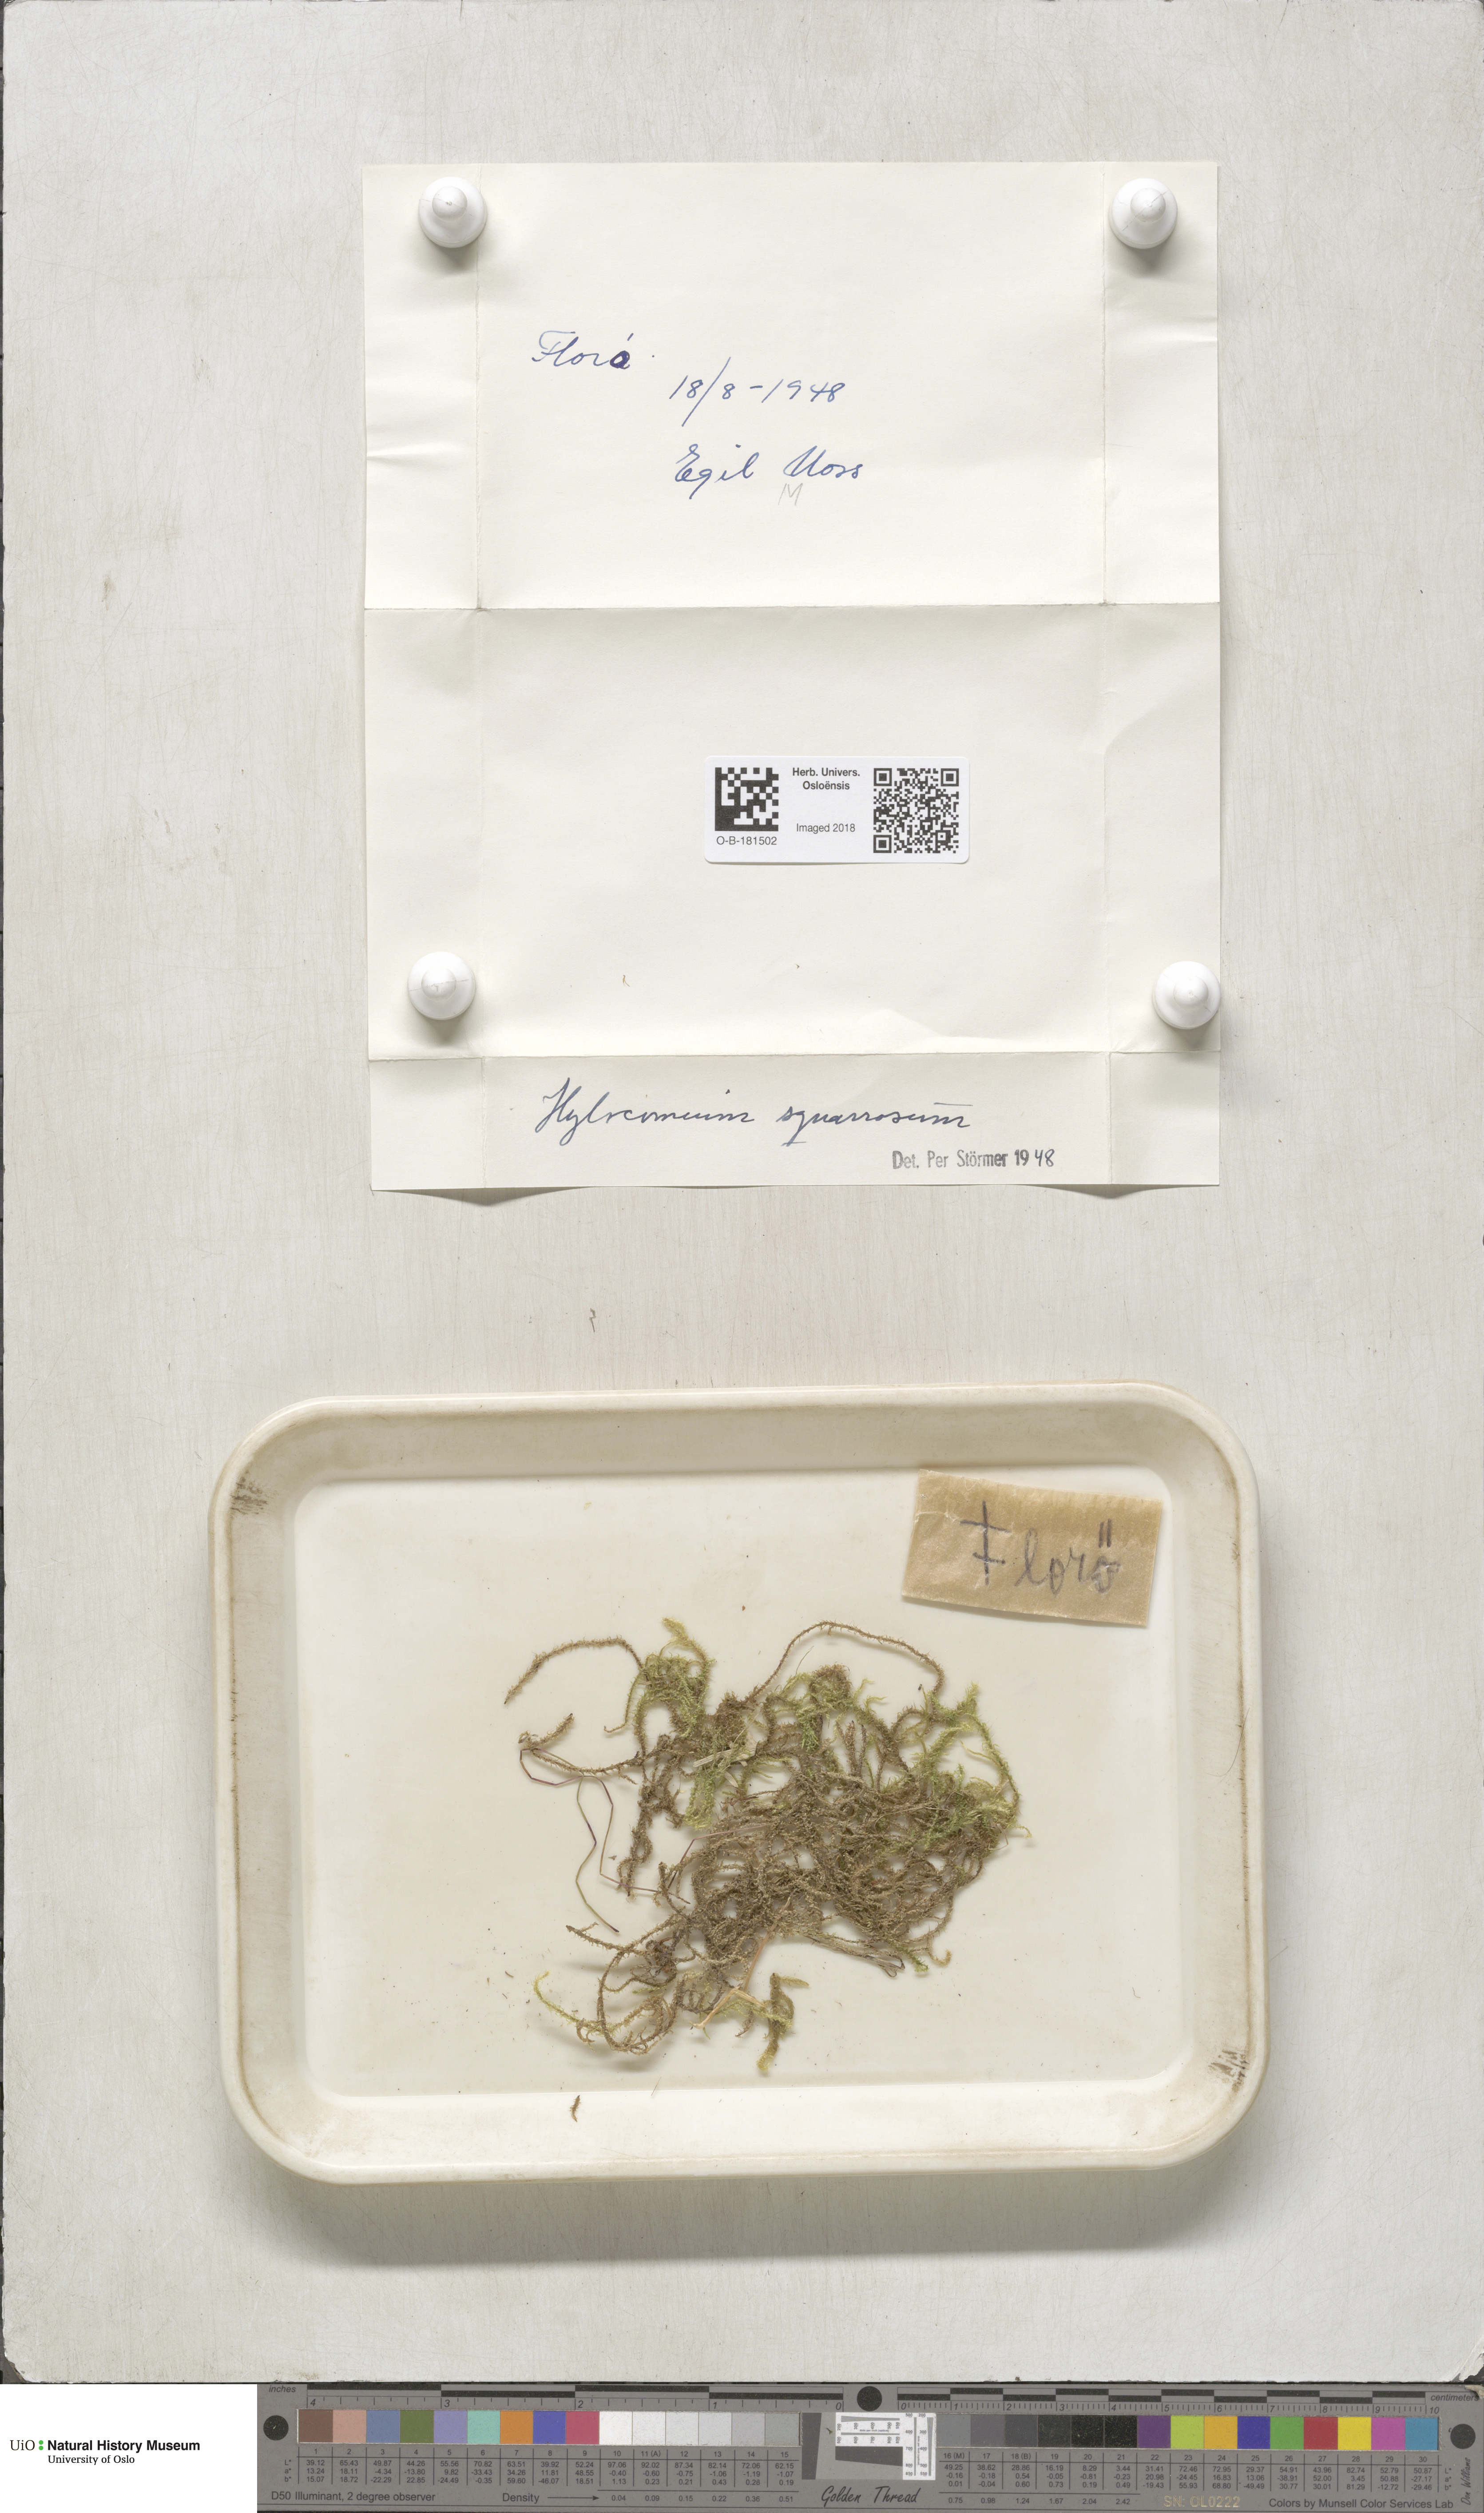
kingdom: Plantae
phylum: Bryophyta
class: Bryopsida
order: Hypnales
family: Hylocomiaceae
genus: Rhytidiadelphus
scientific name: Rhytidiadelphus squarrosus
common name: Springy turf-moss
